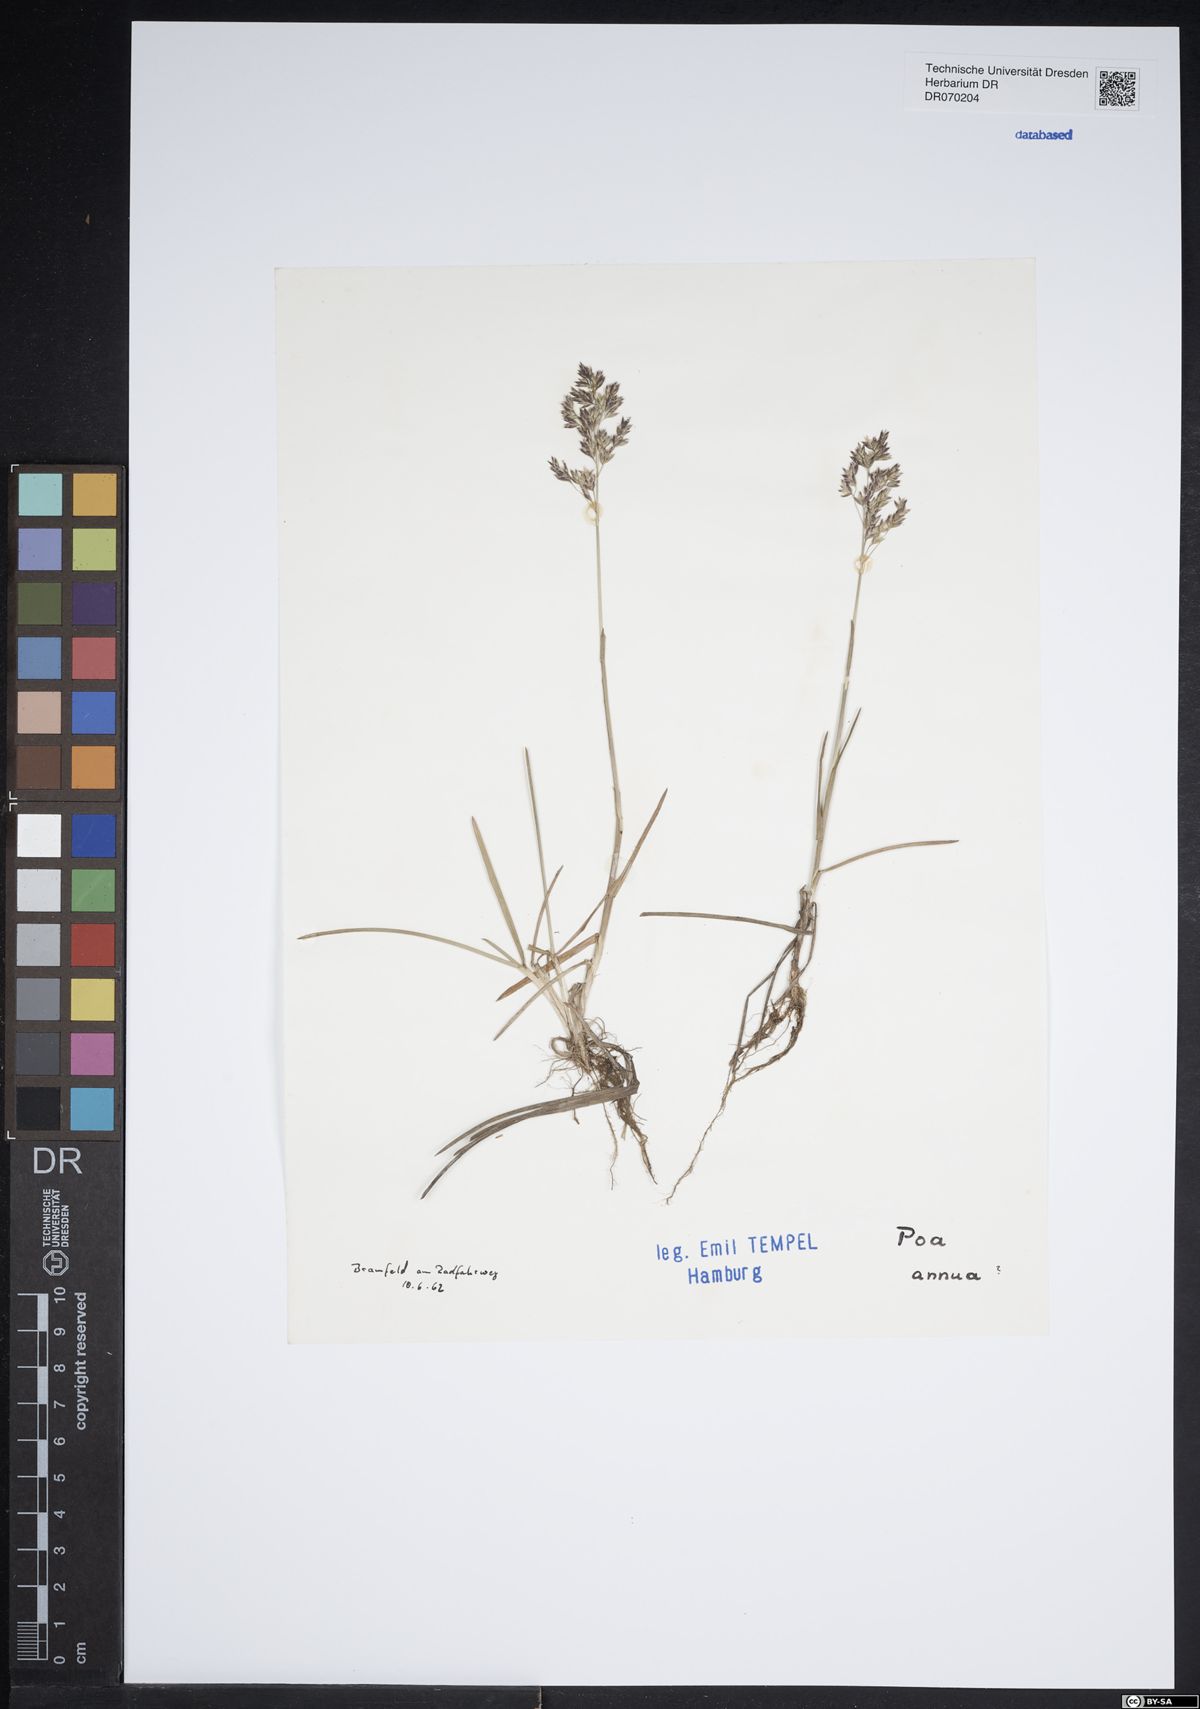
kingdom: Plantae
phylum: Tracheophyta
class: Liliopsida
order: Poales
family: Poaceae
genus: Poa
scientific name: Poa annua
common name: Annual bluegrass
